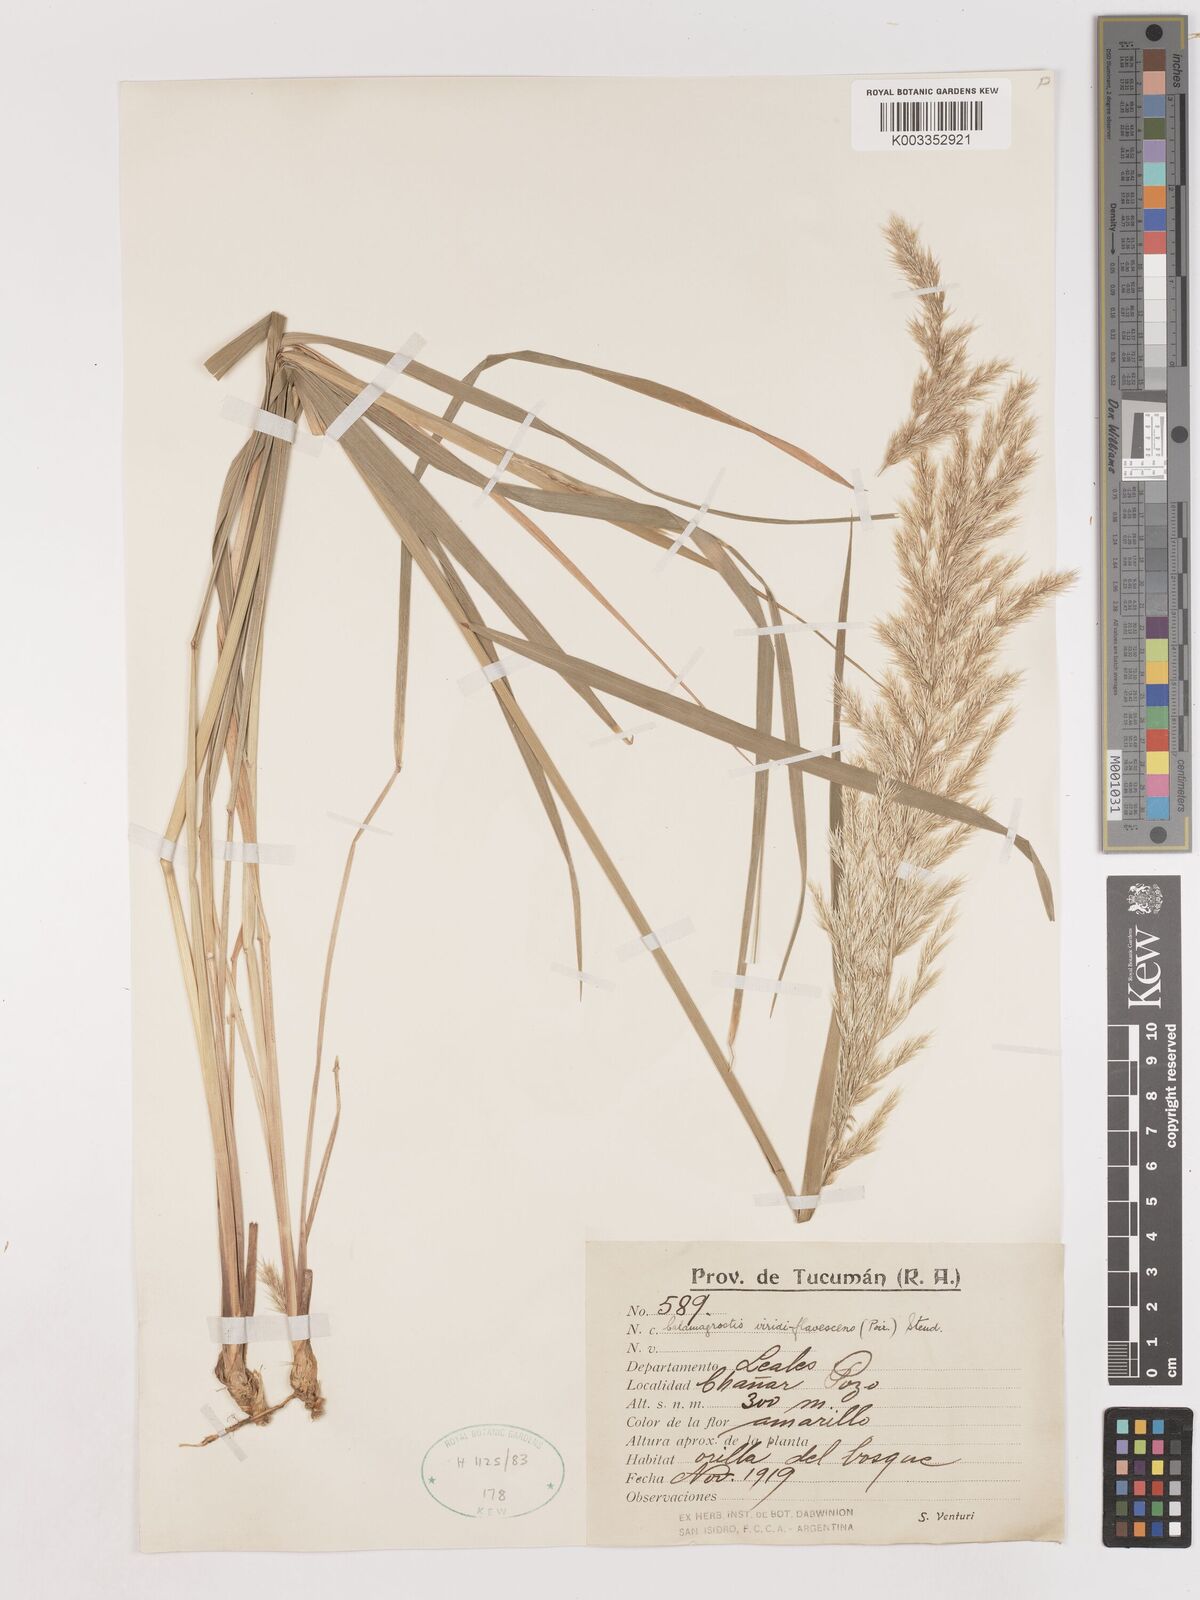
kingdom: Plantae
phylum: Tracheophyta
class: Liliopsida
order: Poales
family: Poaceae
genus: Cinnagrostis
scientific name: Cinnagrostis viridiflavescens
